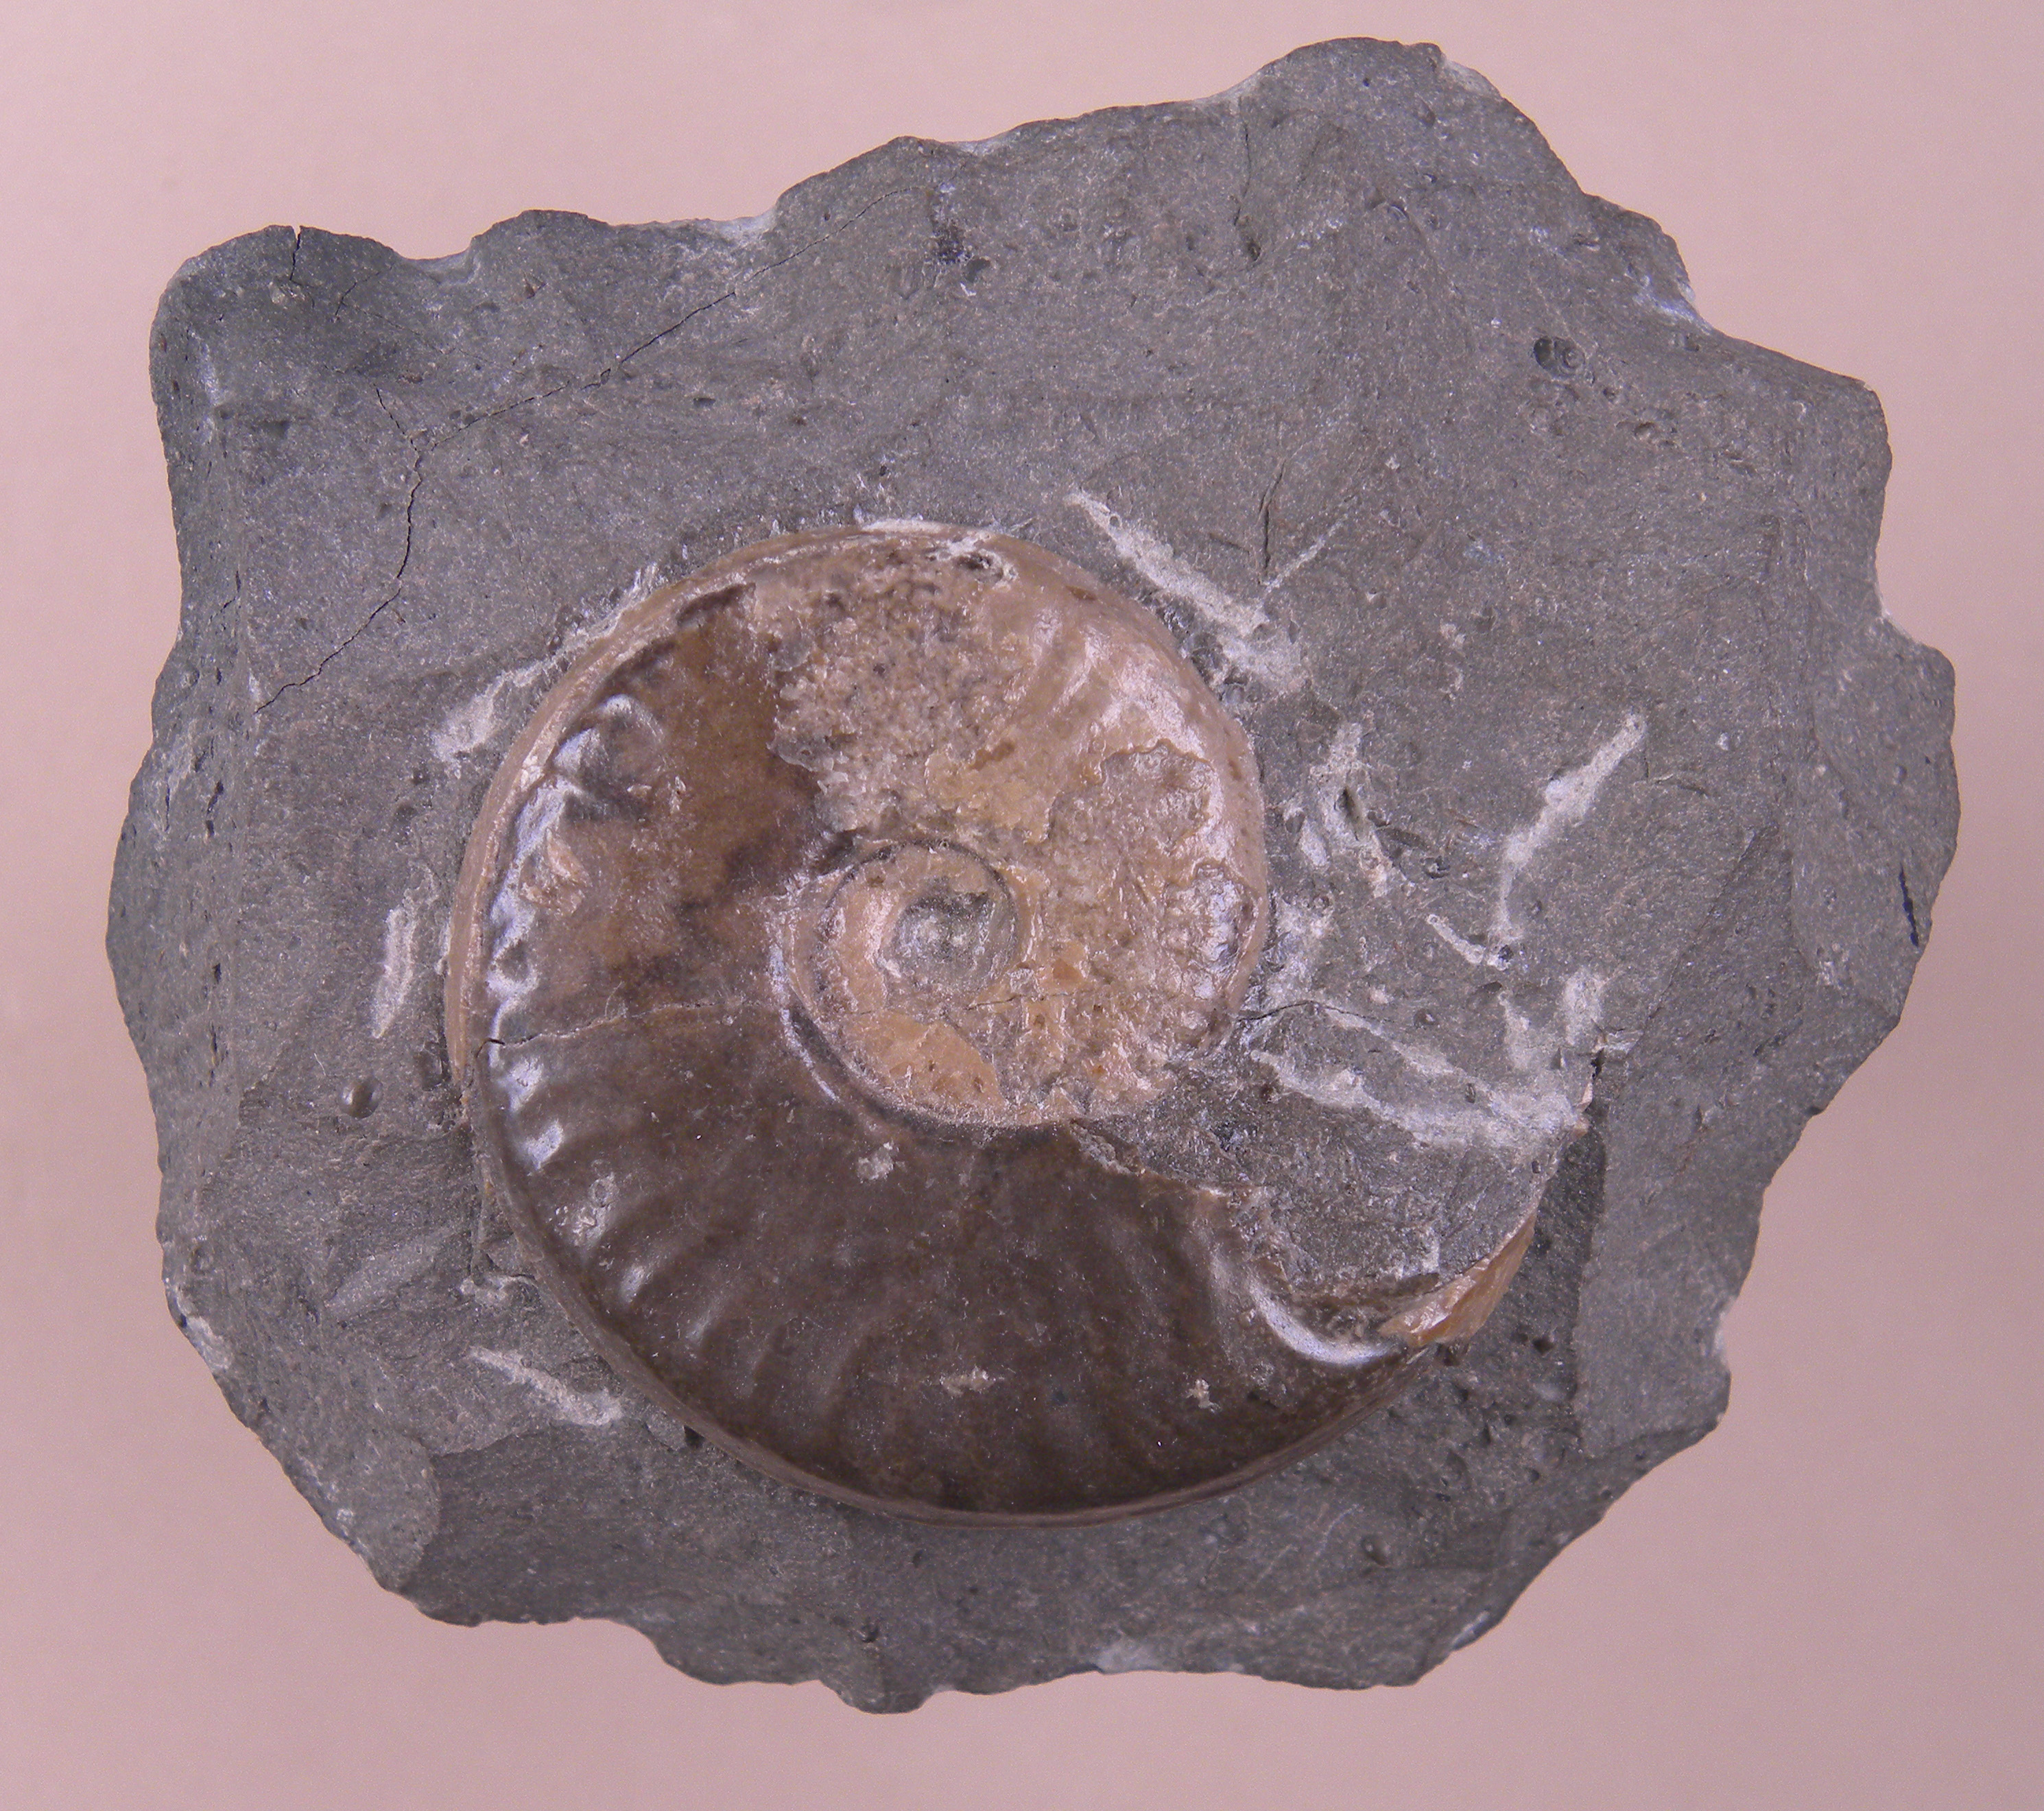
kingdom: Animalia
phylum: Mollusca
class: Cephalopoda
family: Hildoceratidae
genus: Eleganticeras
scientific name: Eleganticeras exaratum
